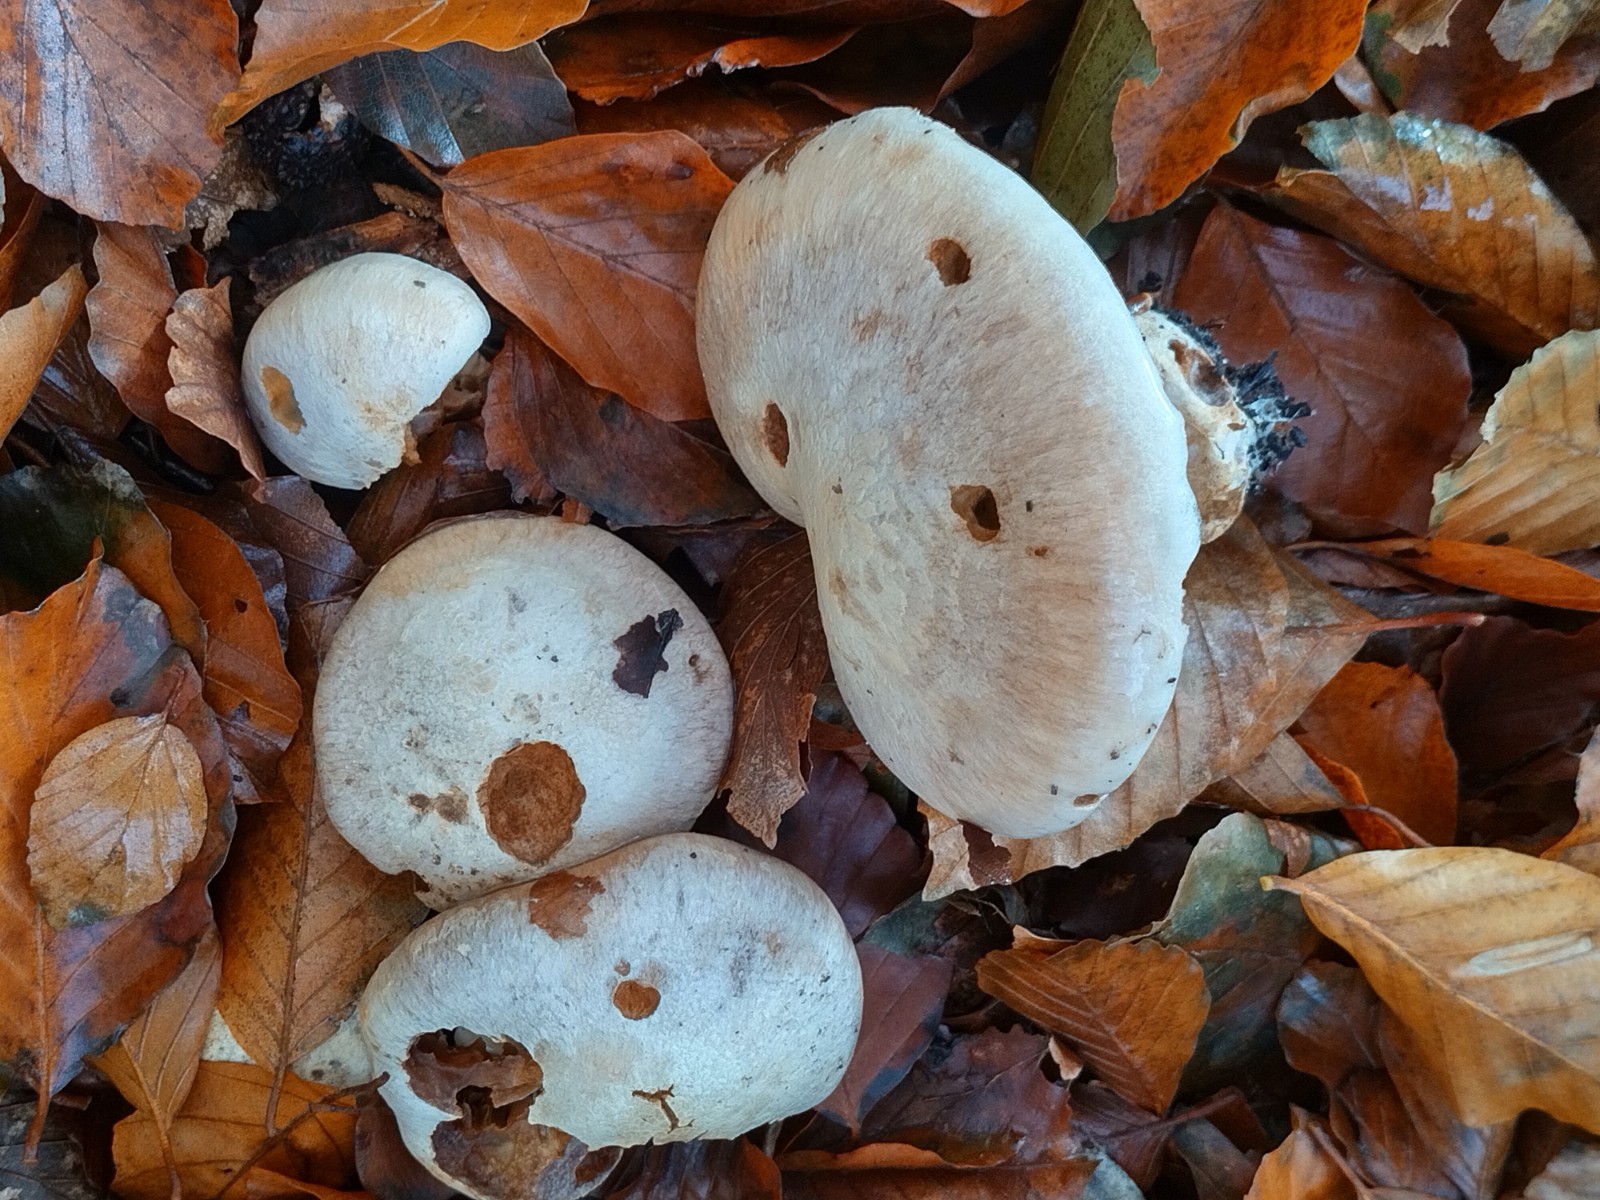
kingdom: Fungi
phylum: Basidiomycota
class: Agaricomycetes
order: Agaricales
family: Cortinariaceae
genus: Cortinarius
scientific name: Cortinarius foetens
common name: stribet slørhat
